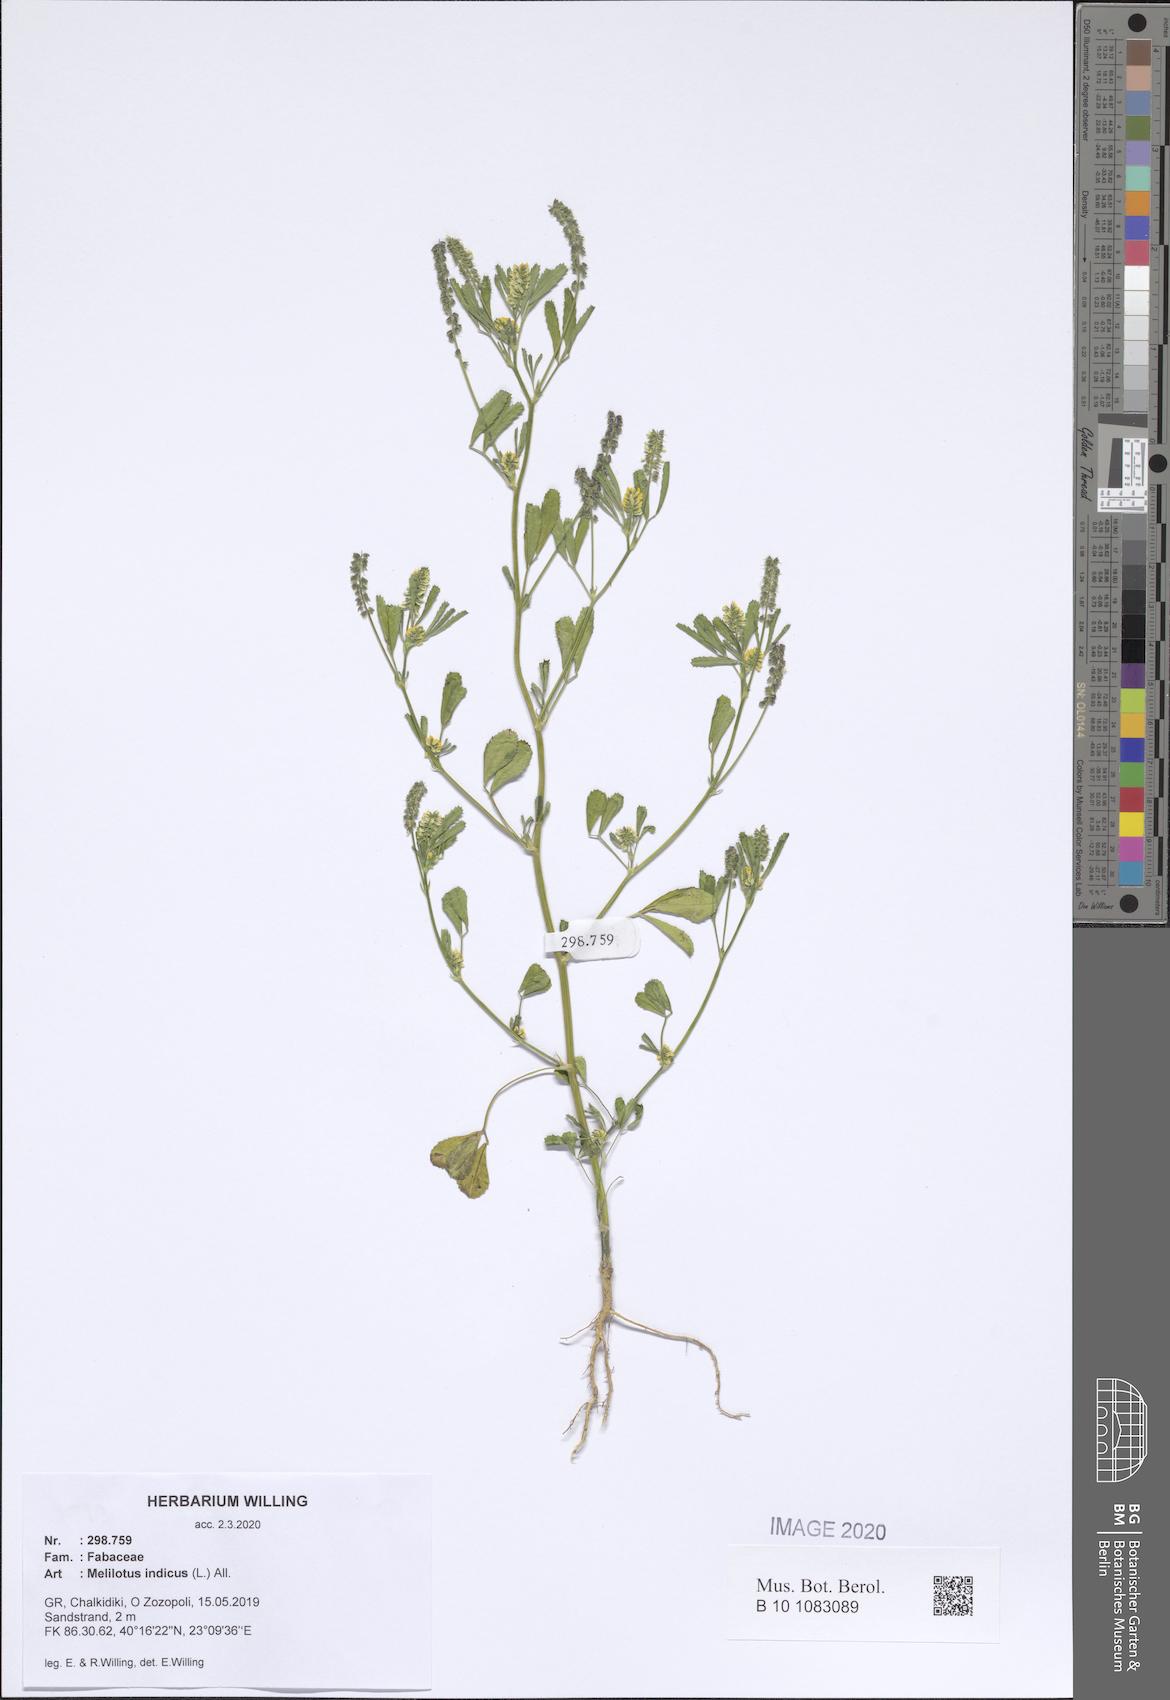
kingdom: Plantae
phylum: Tracheophyta
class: Magnoliopsida
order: Fabales
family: Fabaceae
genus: Melilotus
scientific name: Melilotus indicus
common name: Small melilot
